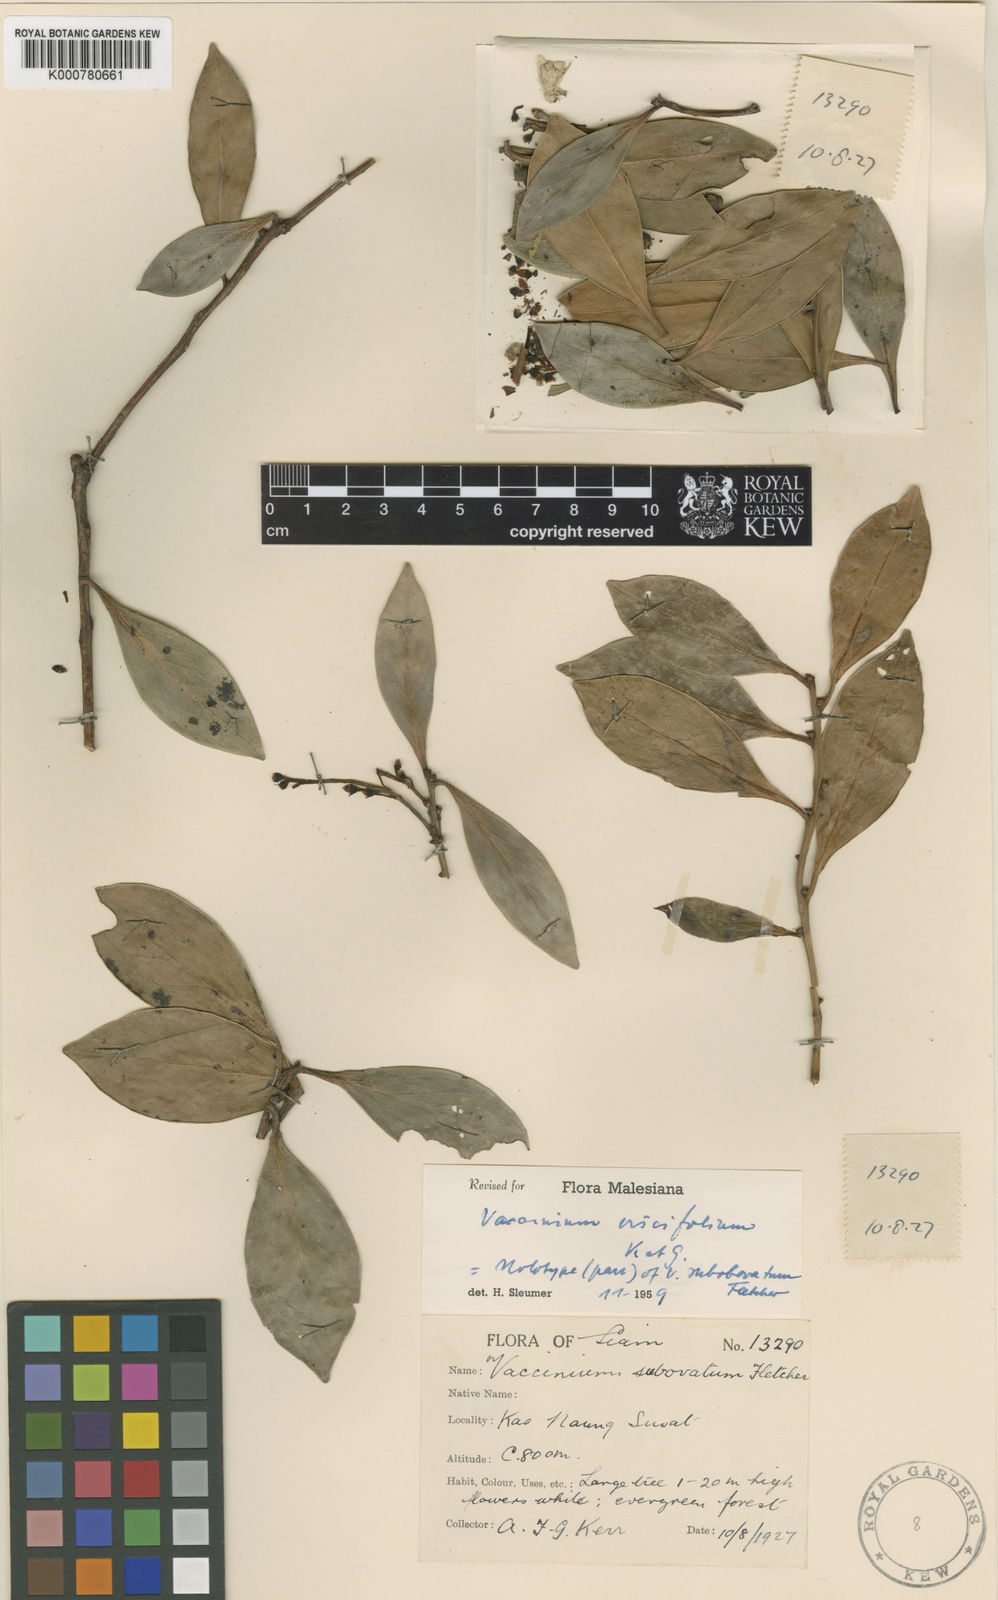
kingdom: Plantae
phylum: Tracheophyta
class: Magnoliopsida
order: Ericales
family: Ericaceae
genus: Vaccinium
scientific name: Vaccinium viscifolium
